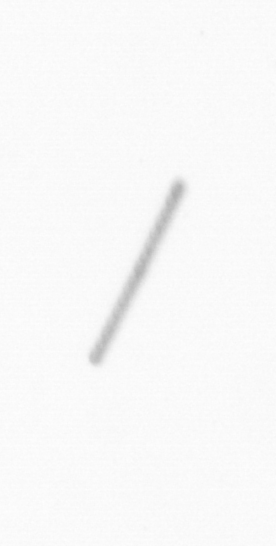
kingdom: Chromista
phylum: Ochrophyta
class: Bacillariophyceae
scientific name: Bacillariophyceae
